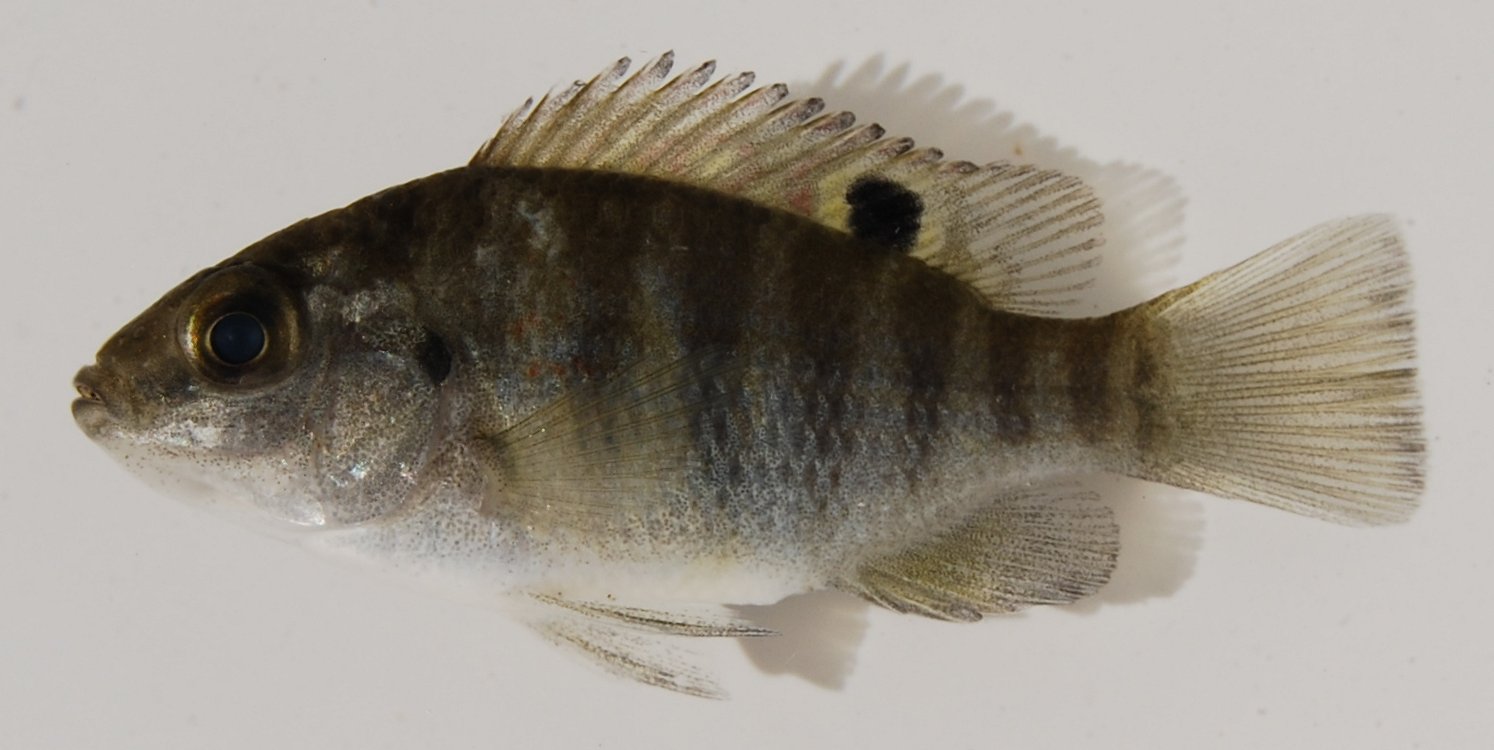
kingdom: Animalia
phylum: Chordata
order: Perciformes
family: Cichlidae
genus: Tilapia
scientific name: Tilapia sparrmanii
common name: Banded tilapia
